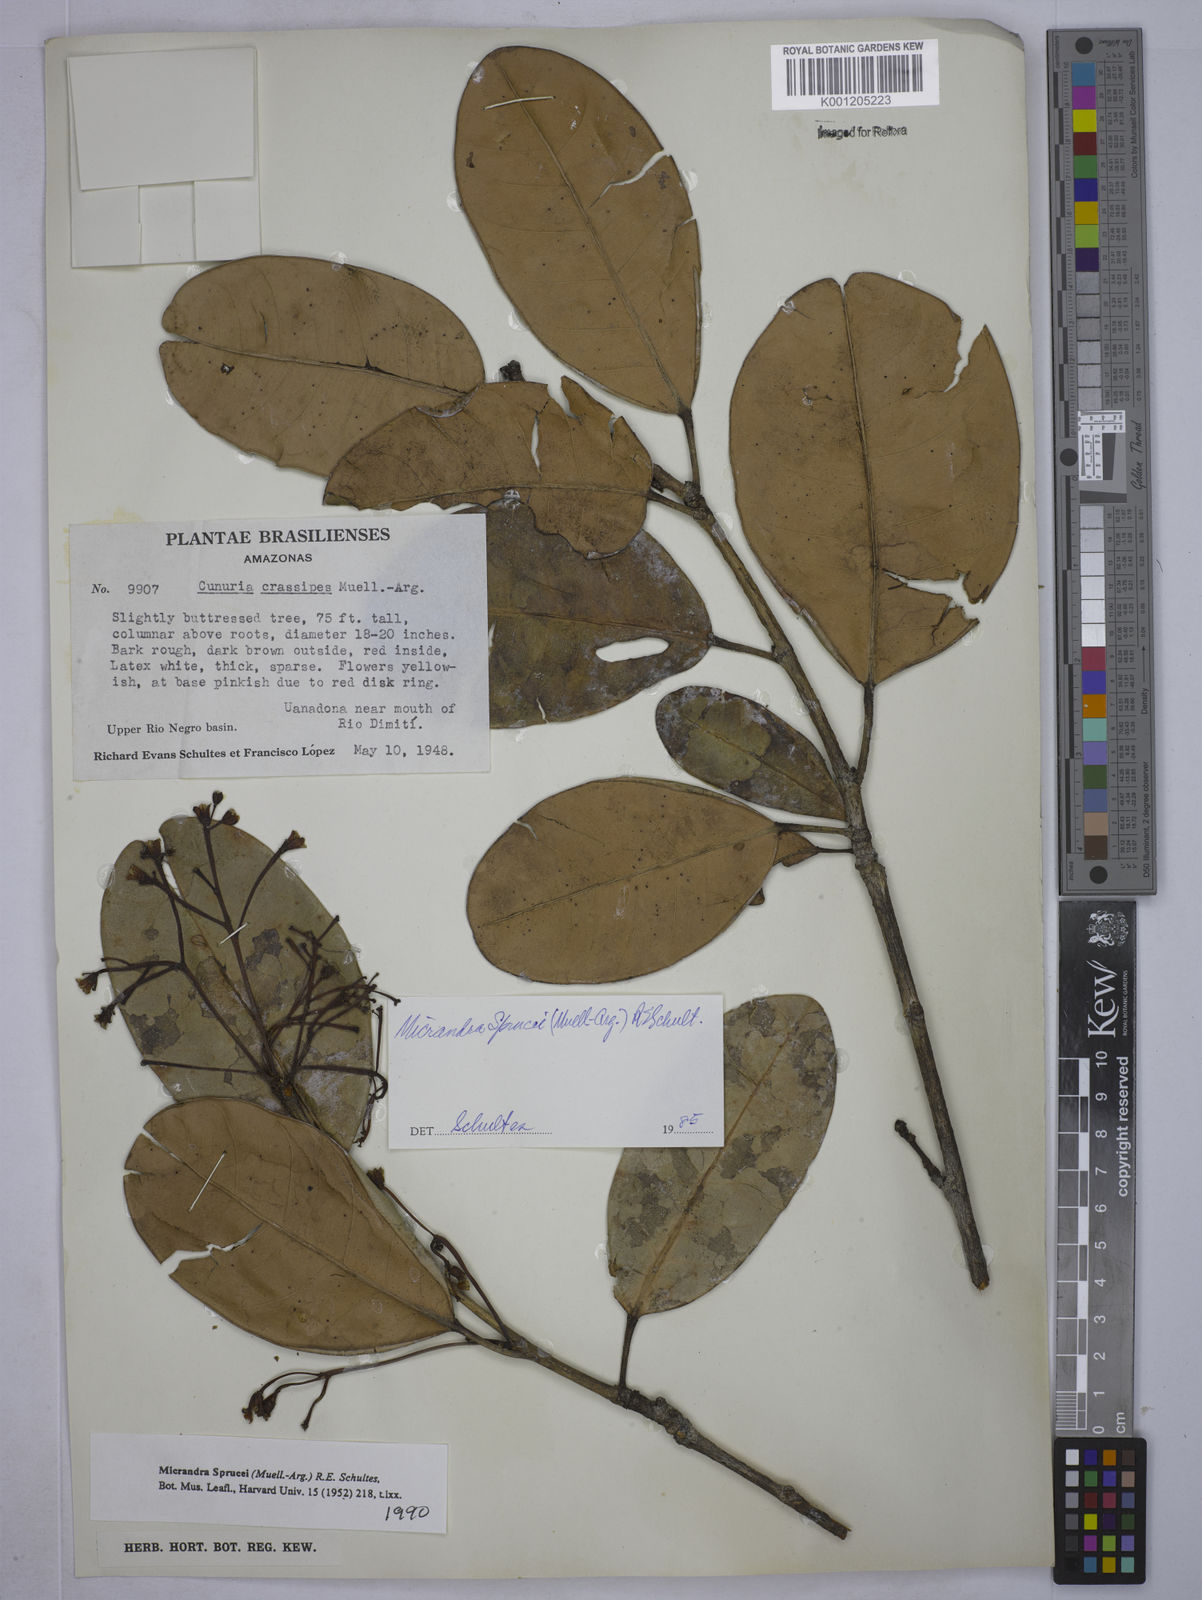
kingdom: Plantae
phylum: Tracheophyta
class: Magnoliopsida
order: Malpighiales
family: Euphorbiaceae
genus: Micrandra
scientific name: Micrandra
